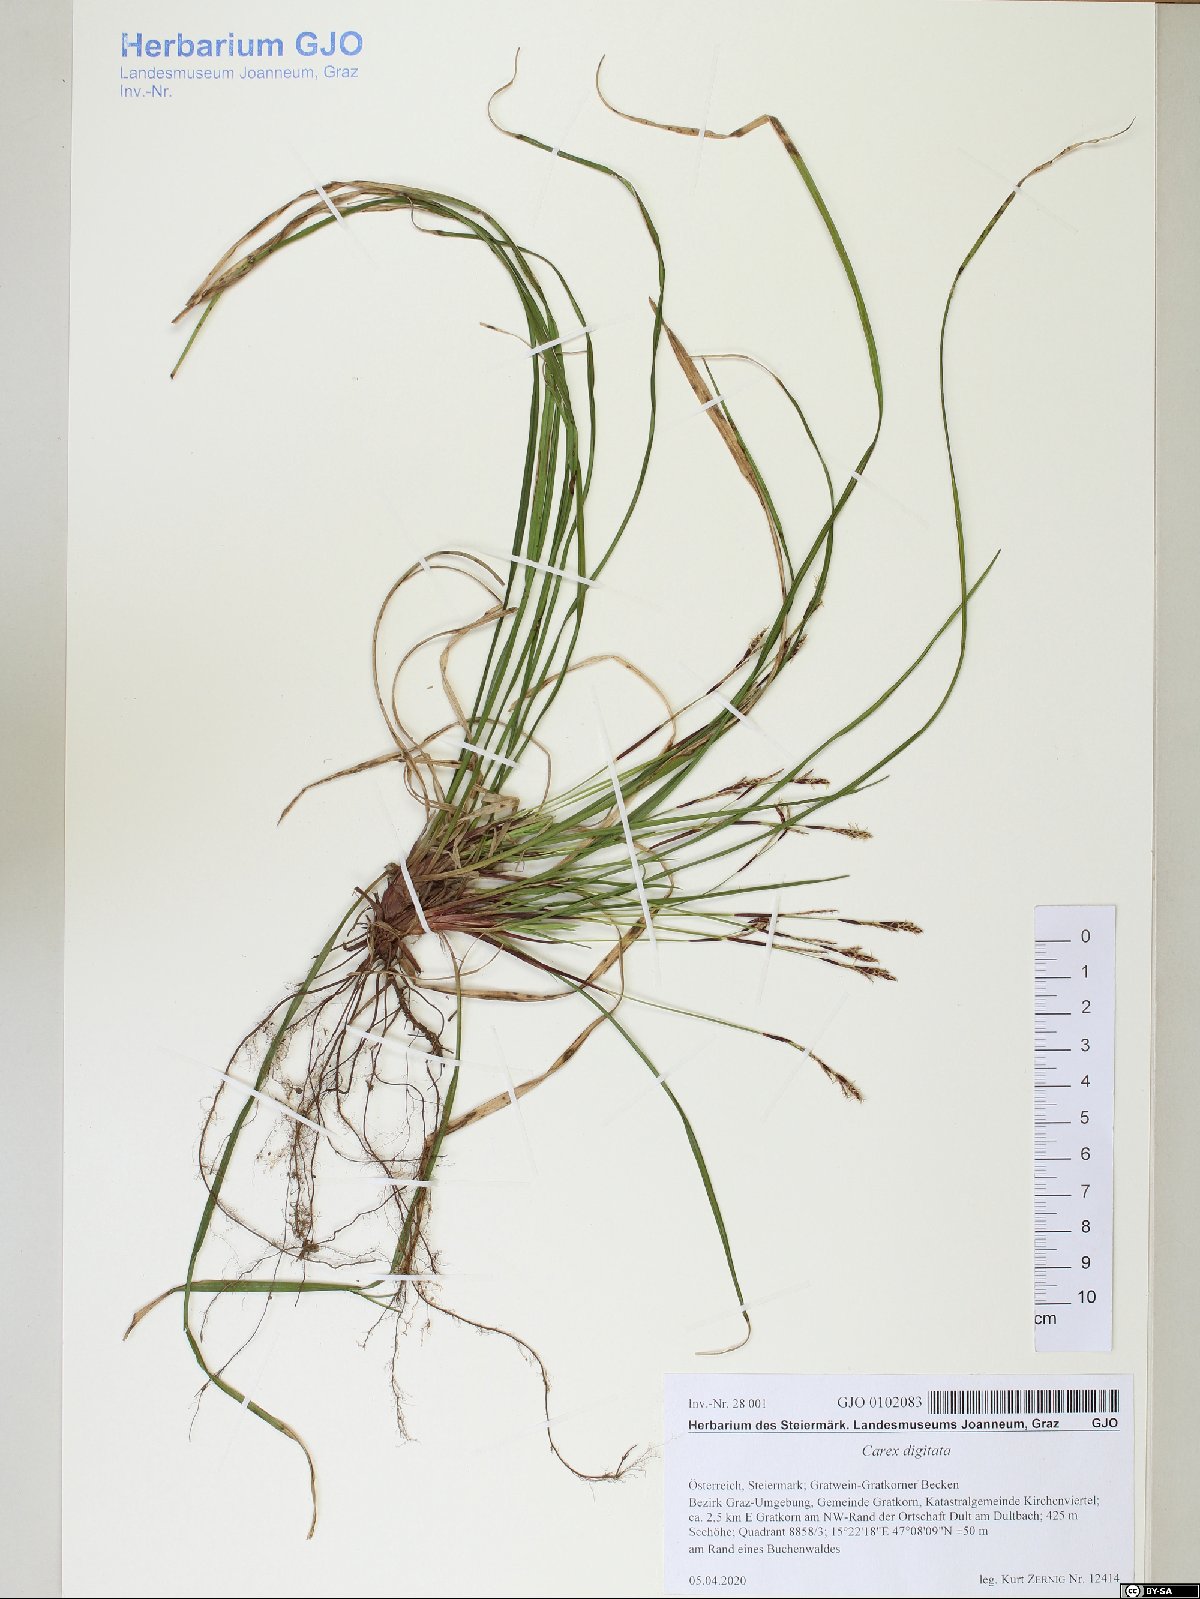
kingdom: Plantae
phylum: Tracheophyta
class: Liliopsida
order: Poales
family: Cyperaceae
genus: Carex
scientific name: Carex digitata
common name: Fingered sedge
